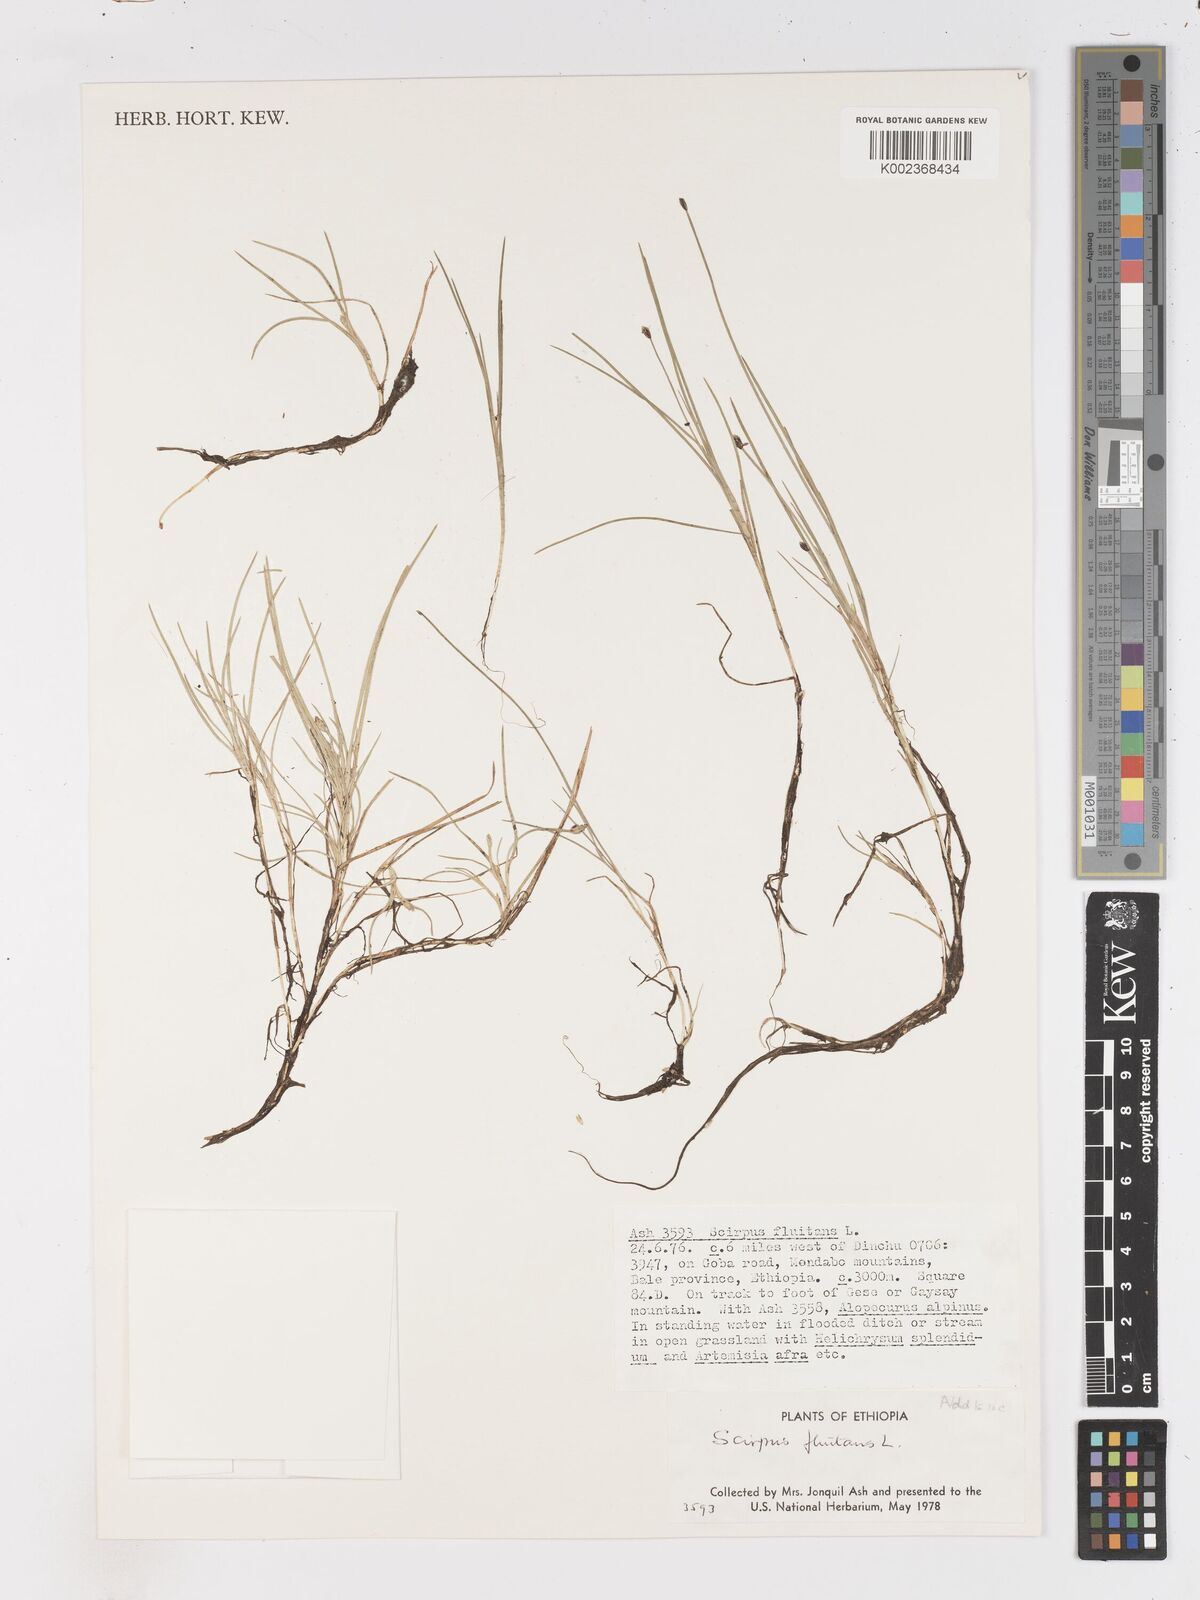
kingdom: Plantae
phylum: Tracheophyta
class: Liliopsida
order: Poales
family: Cyperaceae
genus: Isolepis
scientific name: Isolepis fluitans
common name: Floating club-rush
